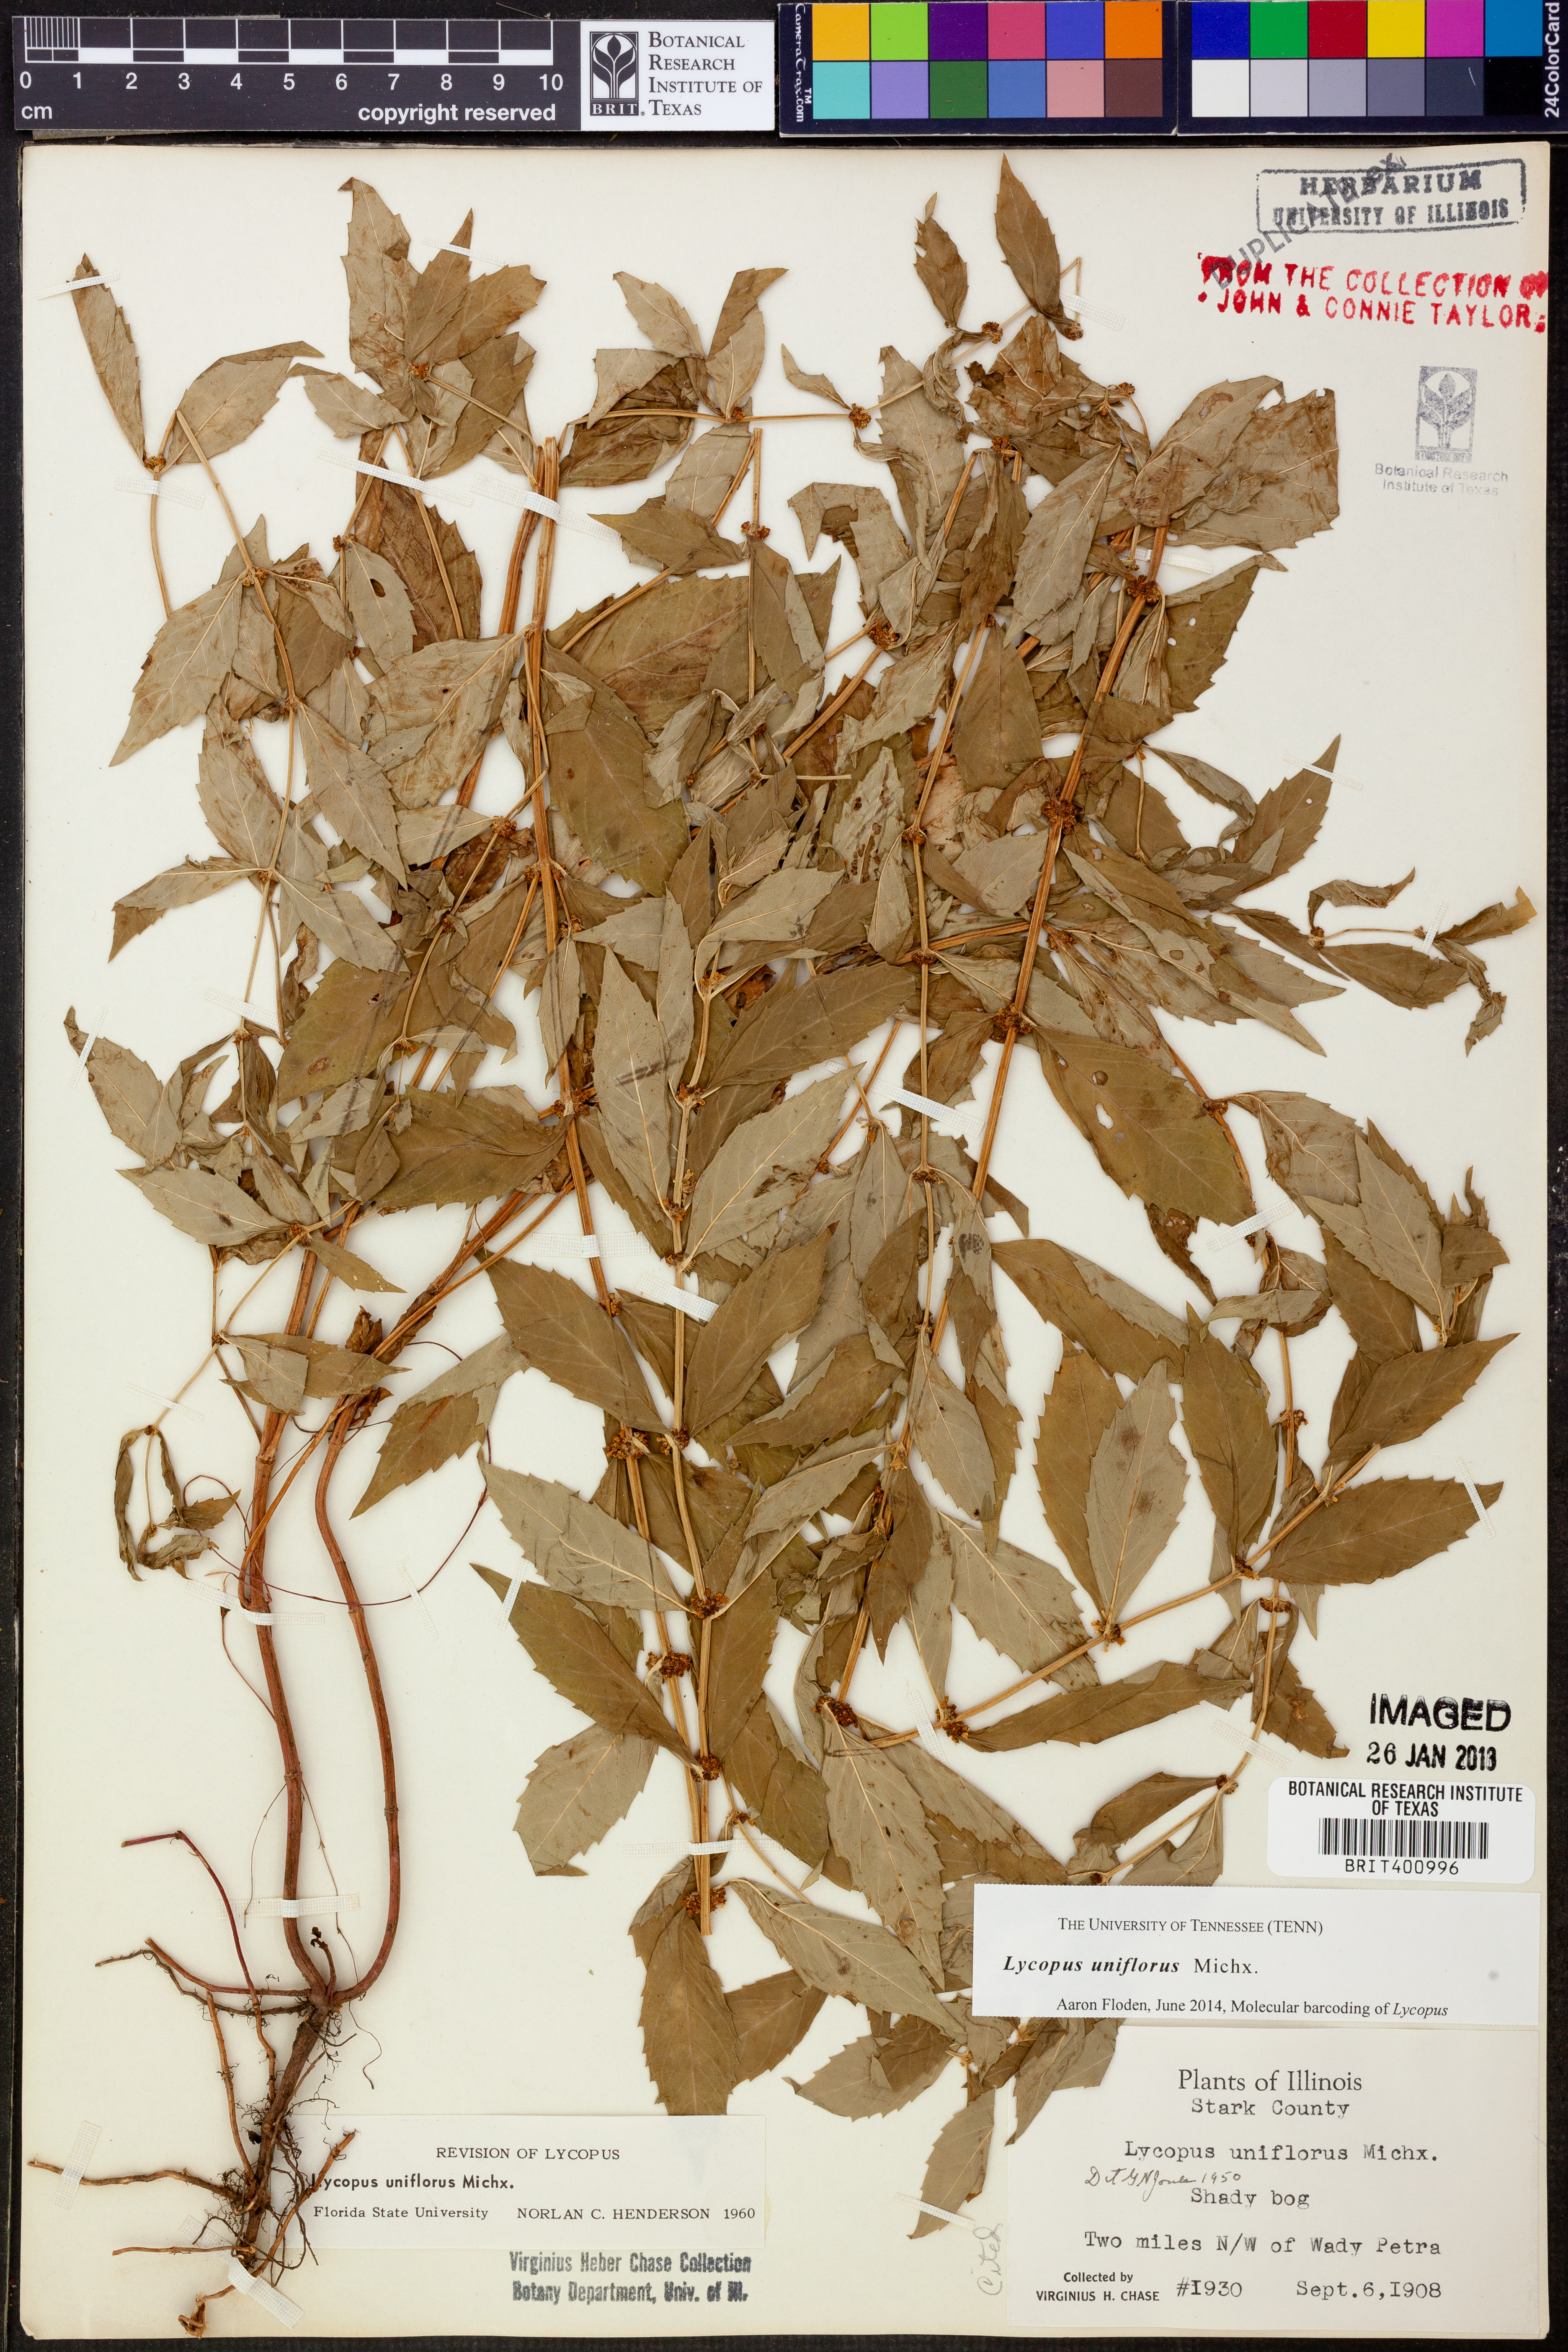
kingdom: Plantae
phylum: Tracheophyta
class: Magnoliopsida
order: Lamiales
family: Lamiaceae
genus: Lycopus
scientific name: Lycopus uniflorus
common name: Northern bugleweed
